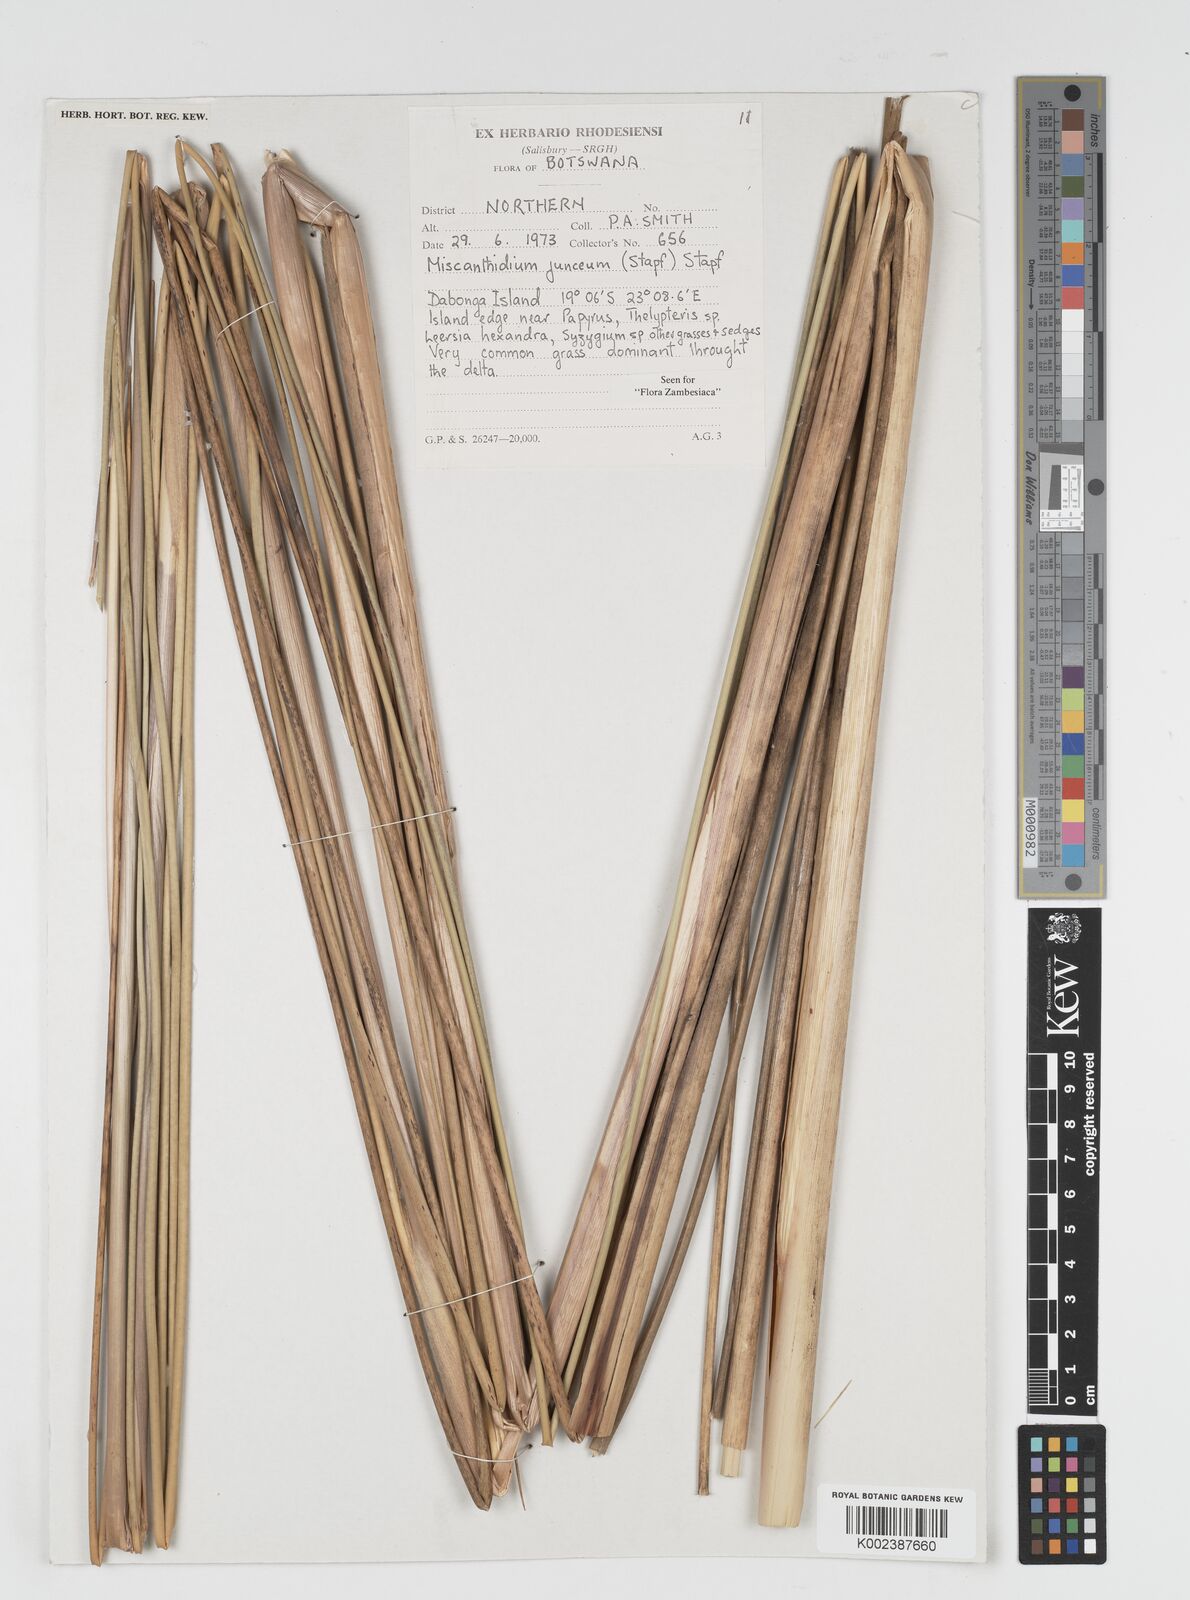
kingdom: Plantae
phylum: Tracheophyta
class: Liliopsida
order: Poales
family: Poaceae
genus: Miscanthidium
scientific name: Miscanthidium junceum
